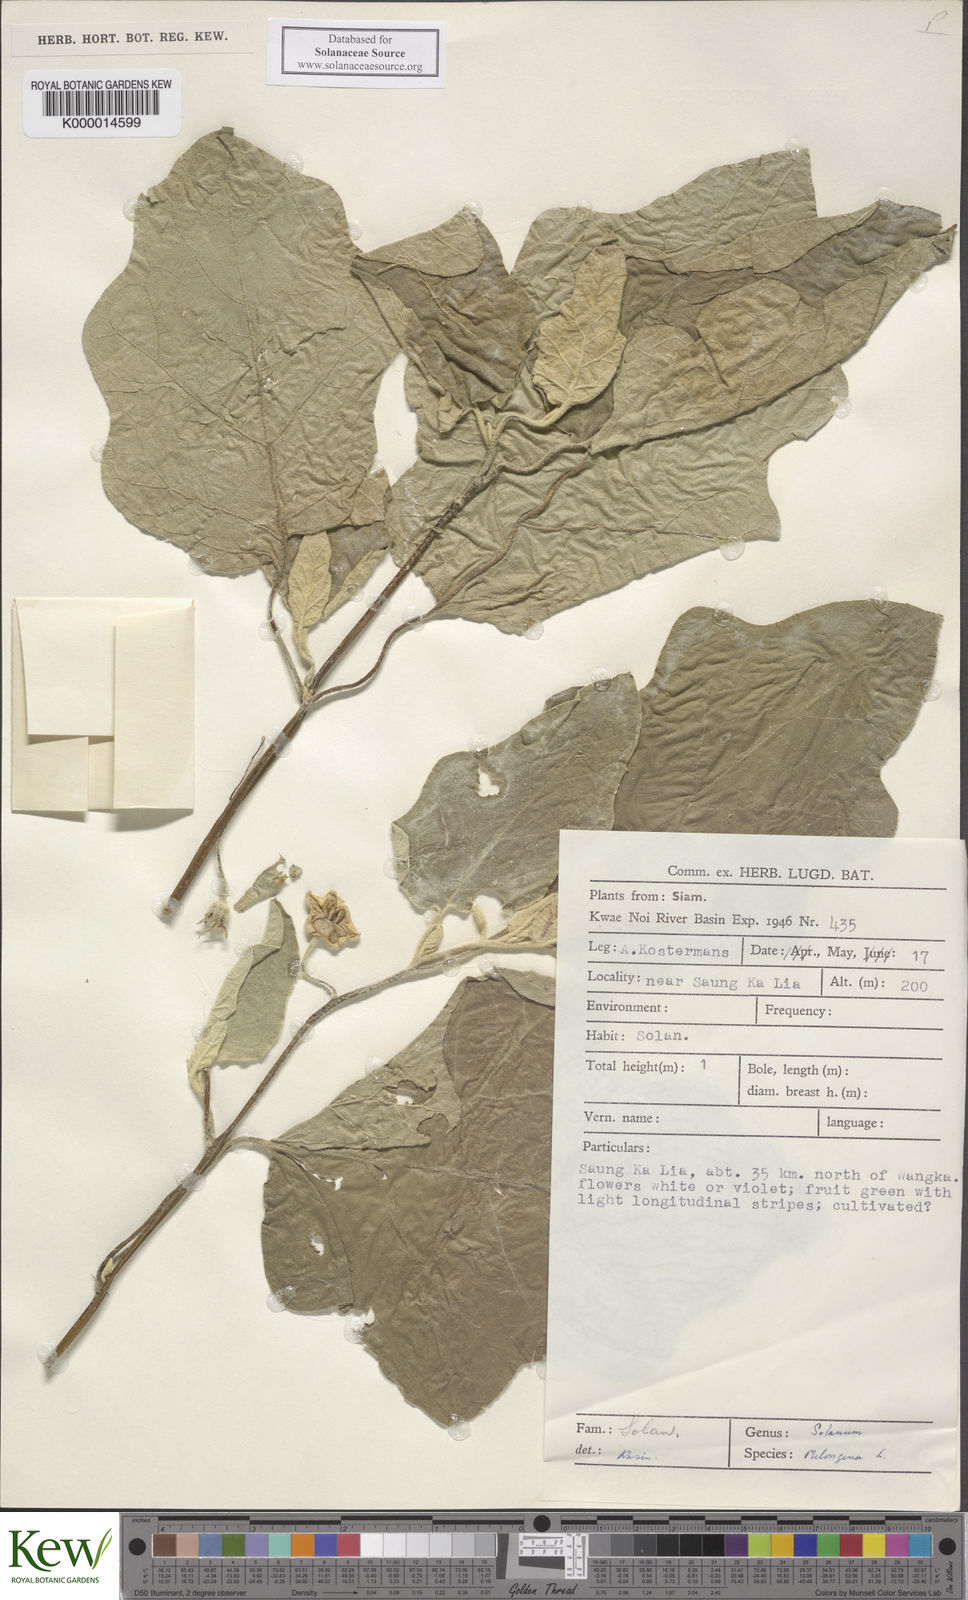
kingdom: Plantae
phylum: Tracheophyta
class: Magnoliopsida
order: Solanales
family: Solanaceae
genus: Solanum
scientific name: Solanum melongena
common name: Eggplant
